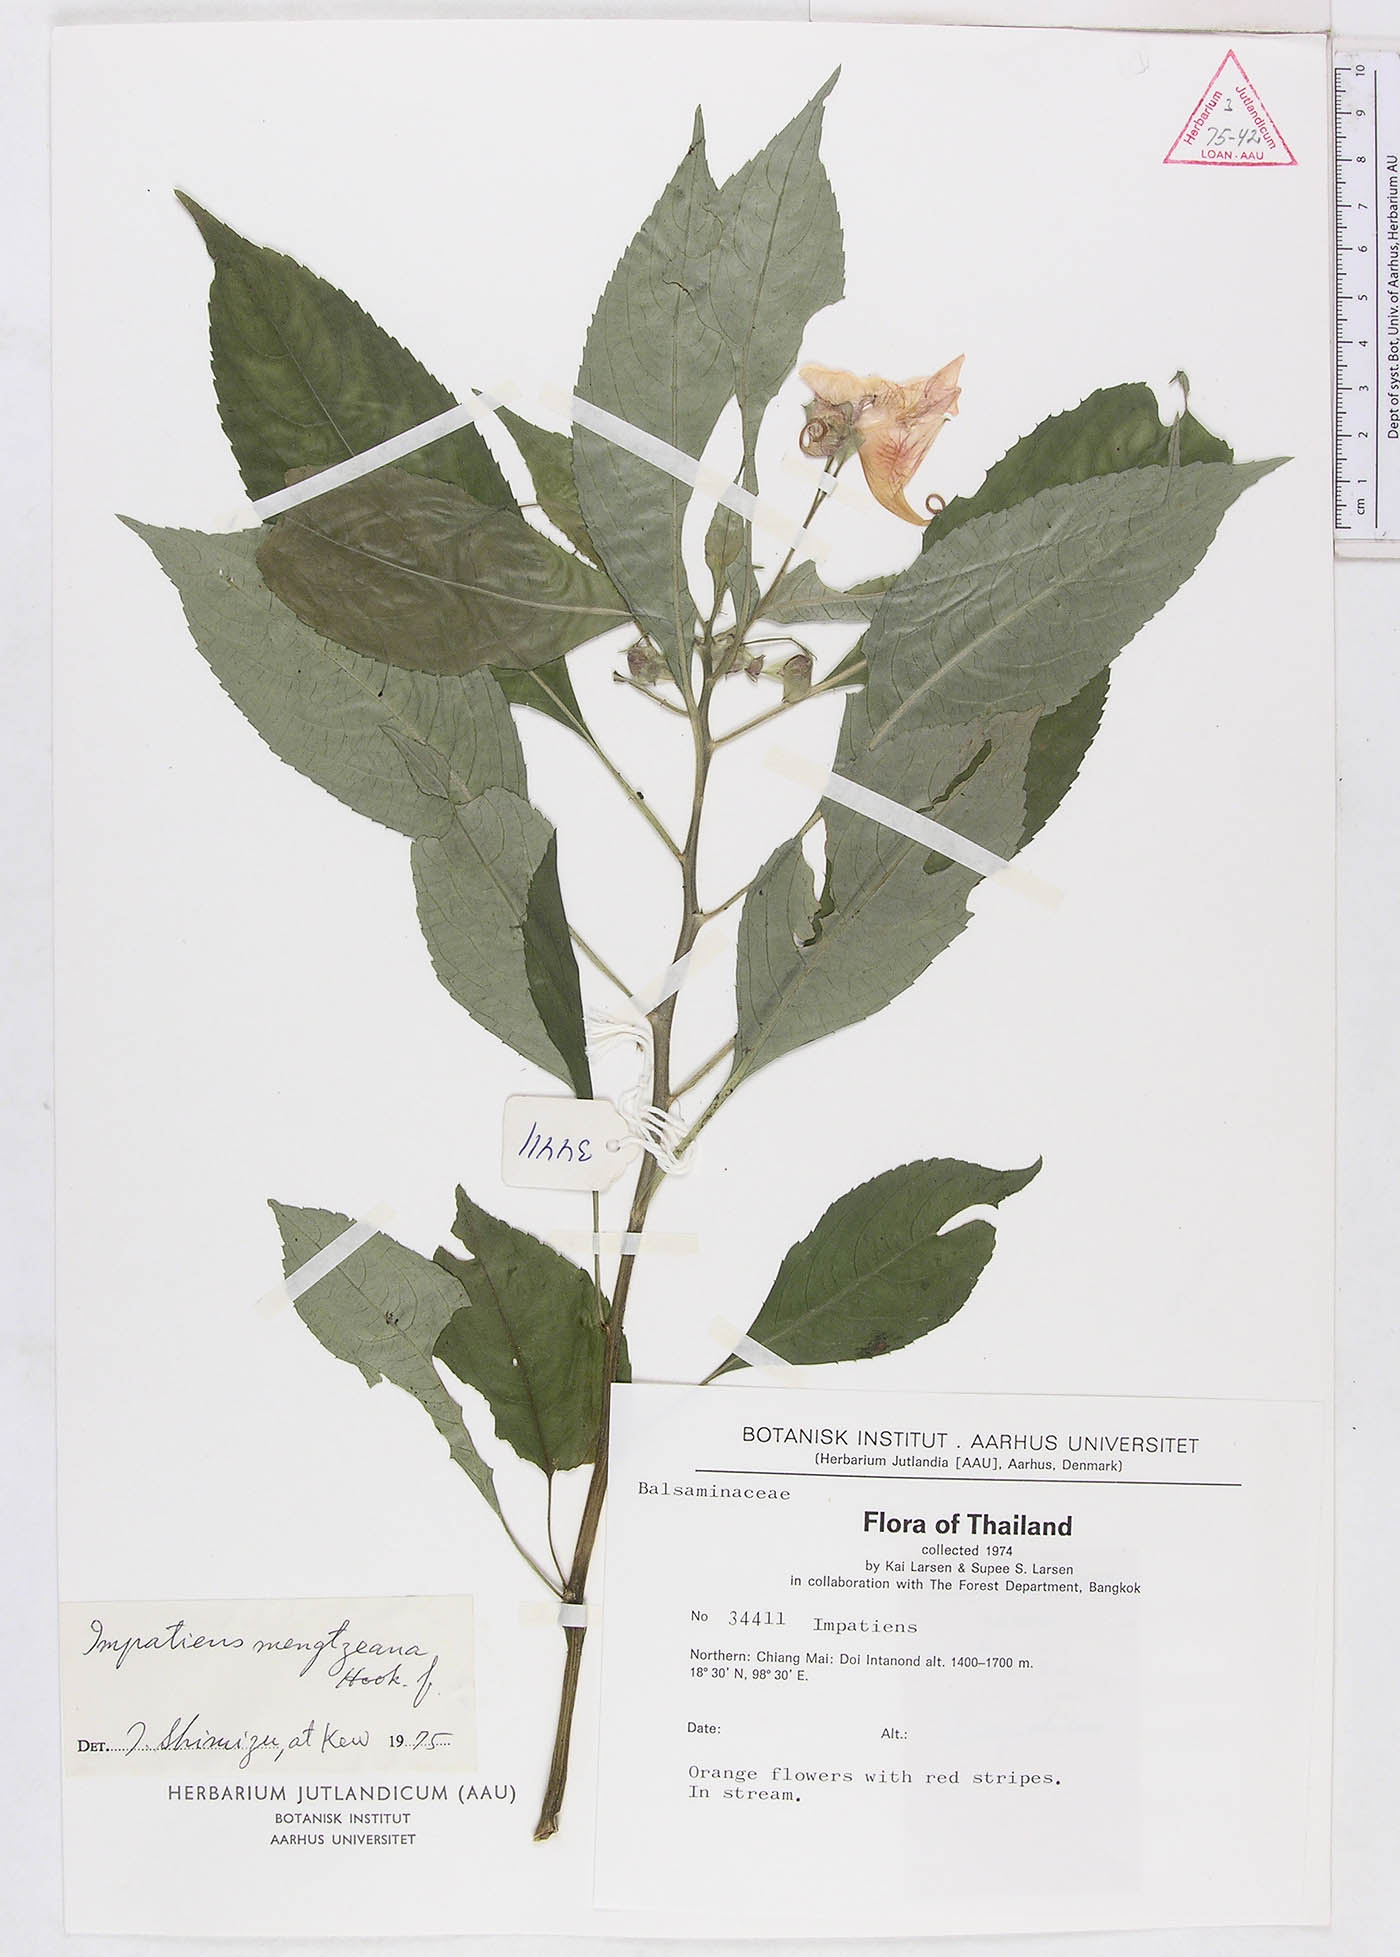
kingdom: Plantae
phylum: Tracheophyta
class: Magnoliopsida
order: Ericales
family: Balsaminaceae
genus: Impatiens
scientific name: Impatiens pulchra
